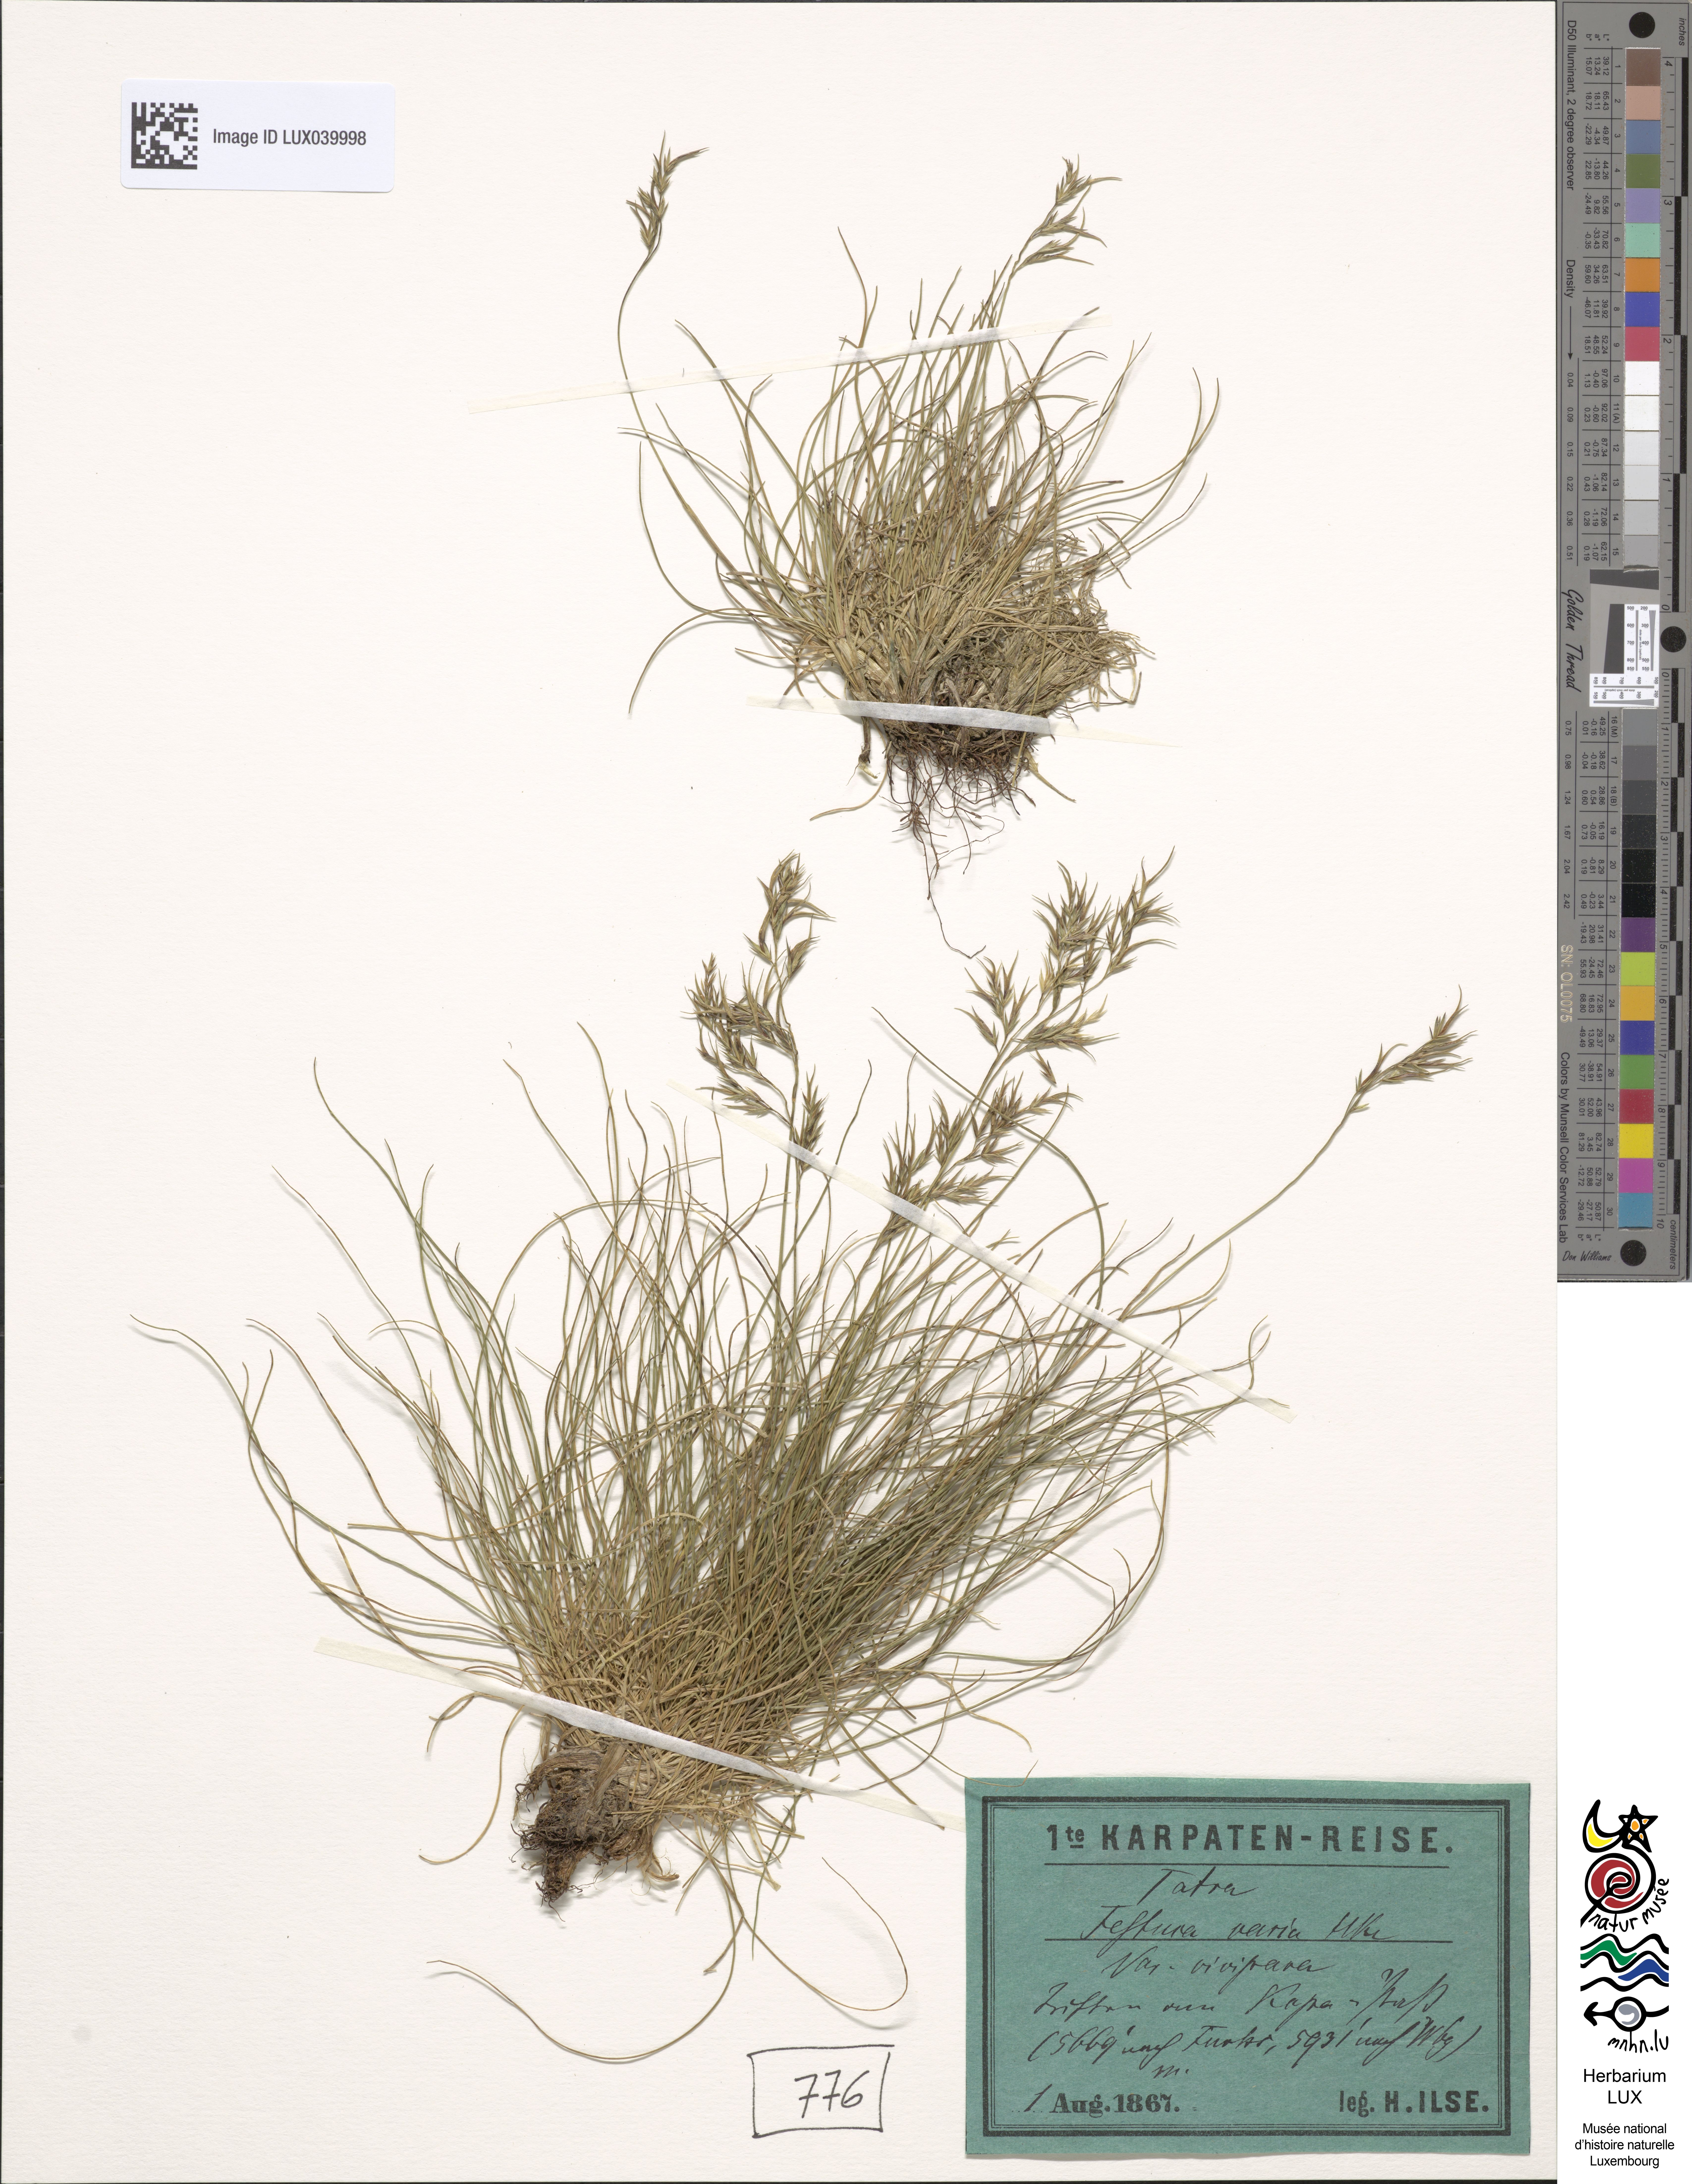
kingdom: Plantae
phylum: Tracheophyta
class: Liliopsida
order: Poales
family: Poaceae
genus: Festuca
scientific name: Festuca varia
